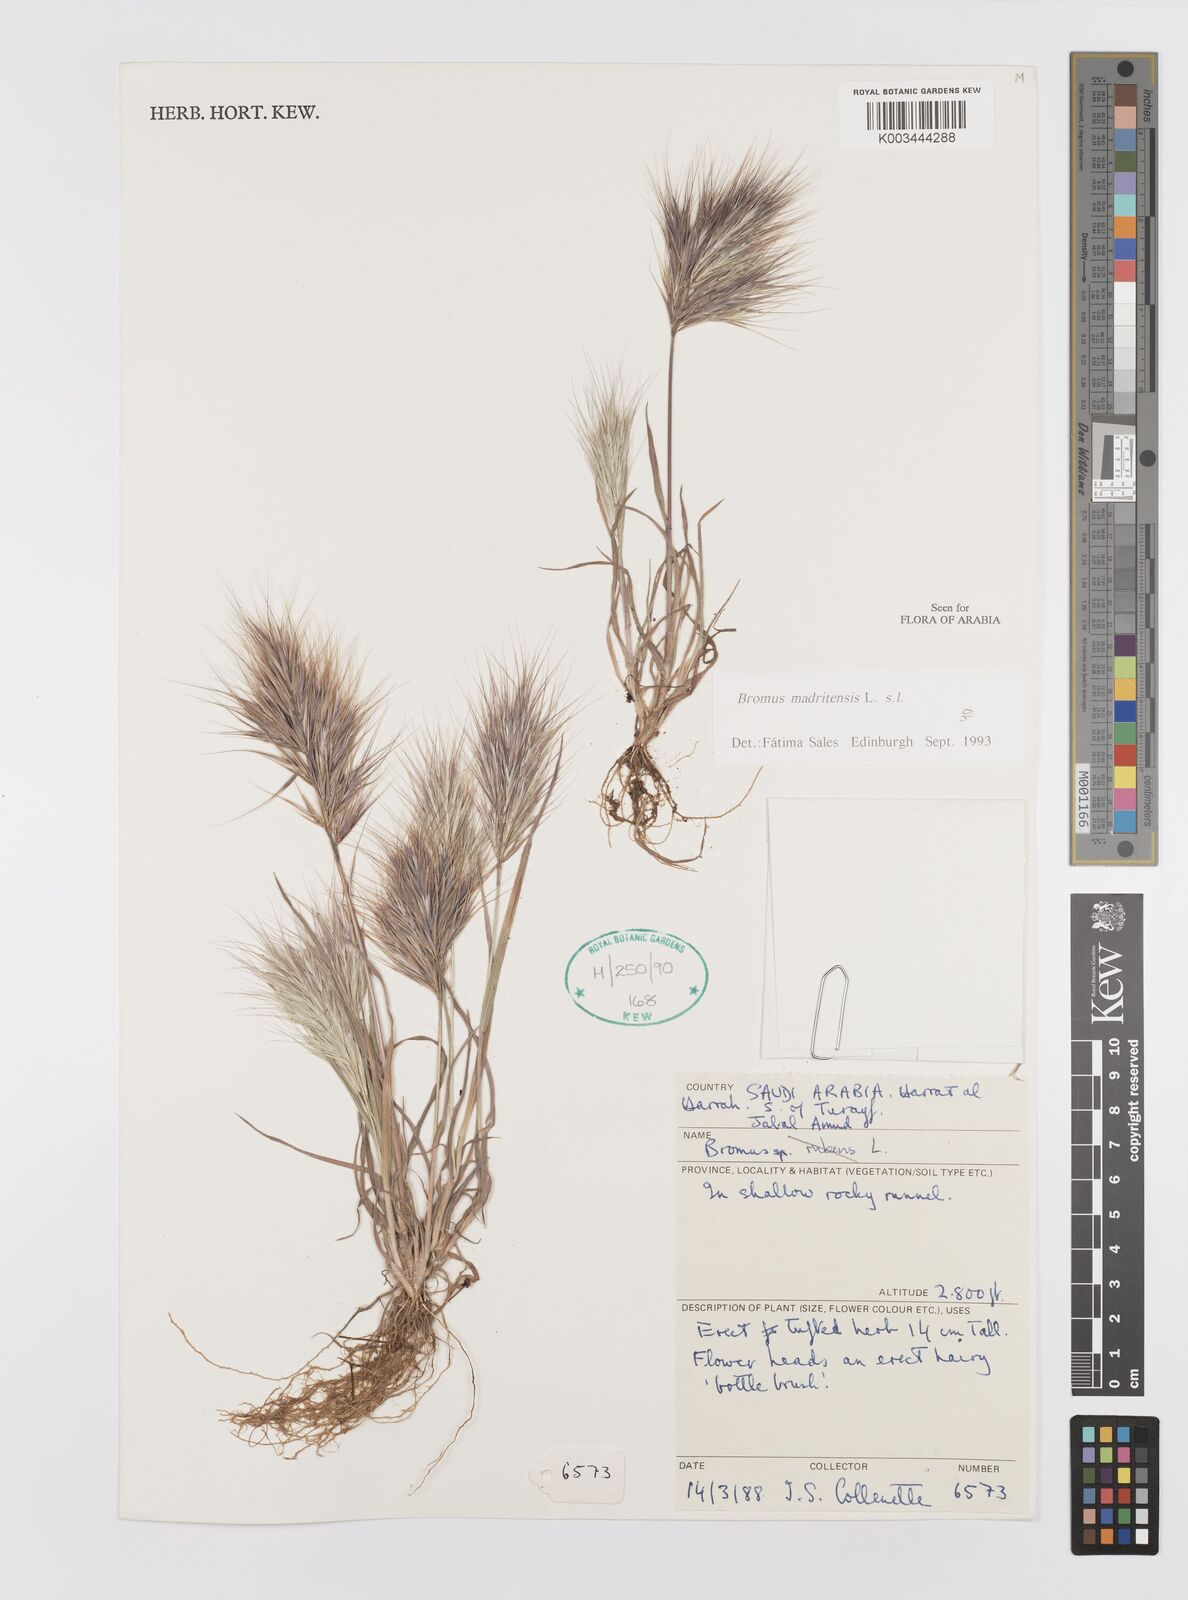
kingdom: Plantae
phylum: Tracheophyta
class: Liliopsida
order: Poales
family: Poaceae
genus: Bromus
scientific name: Bromus madritensis
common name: Compact brome
